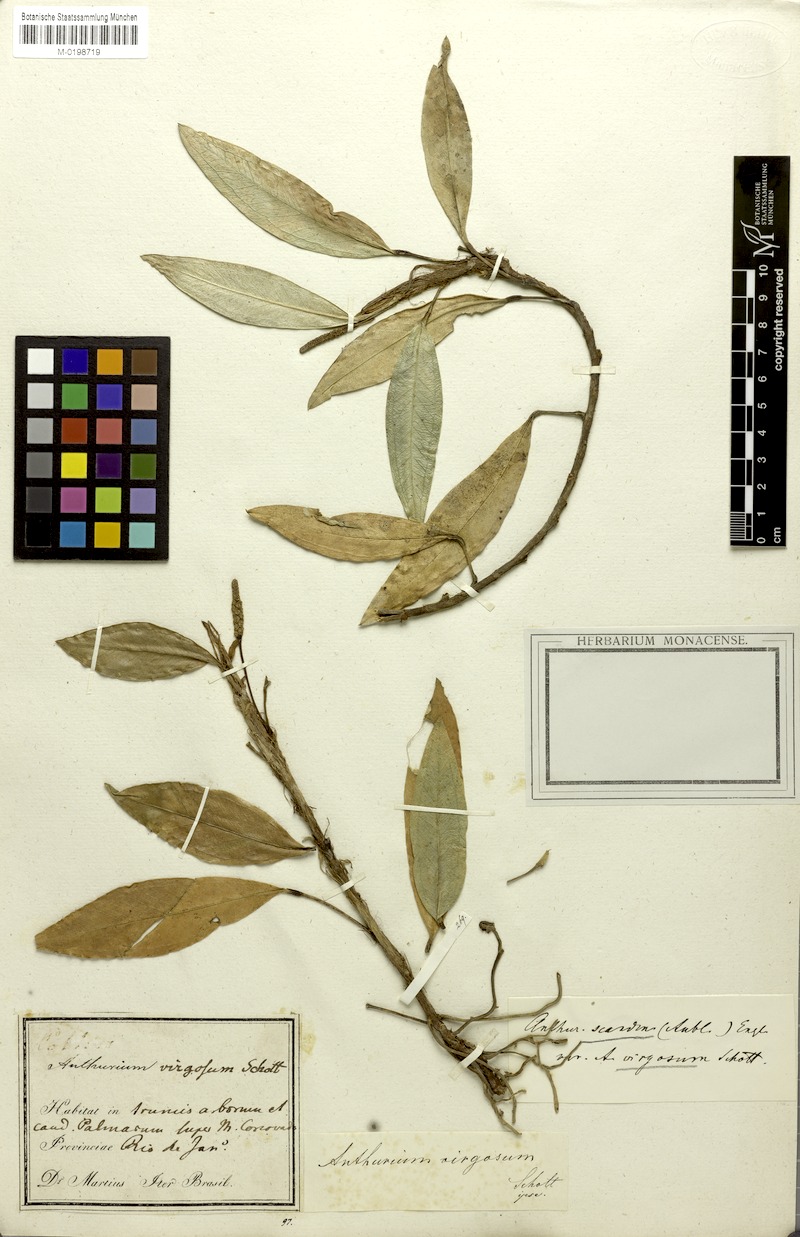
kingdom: Plantae
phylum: Tracheophyta
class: Liliopsida
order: Alismatales
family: Araceae
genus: Anthurium
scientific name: Anthurium scandens
